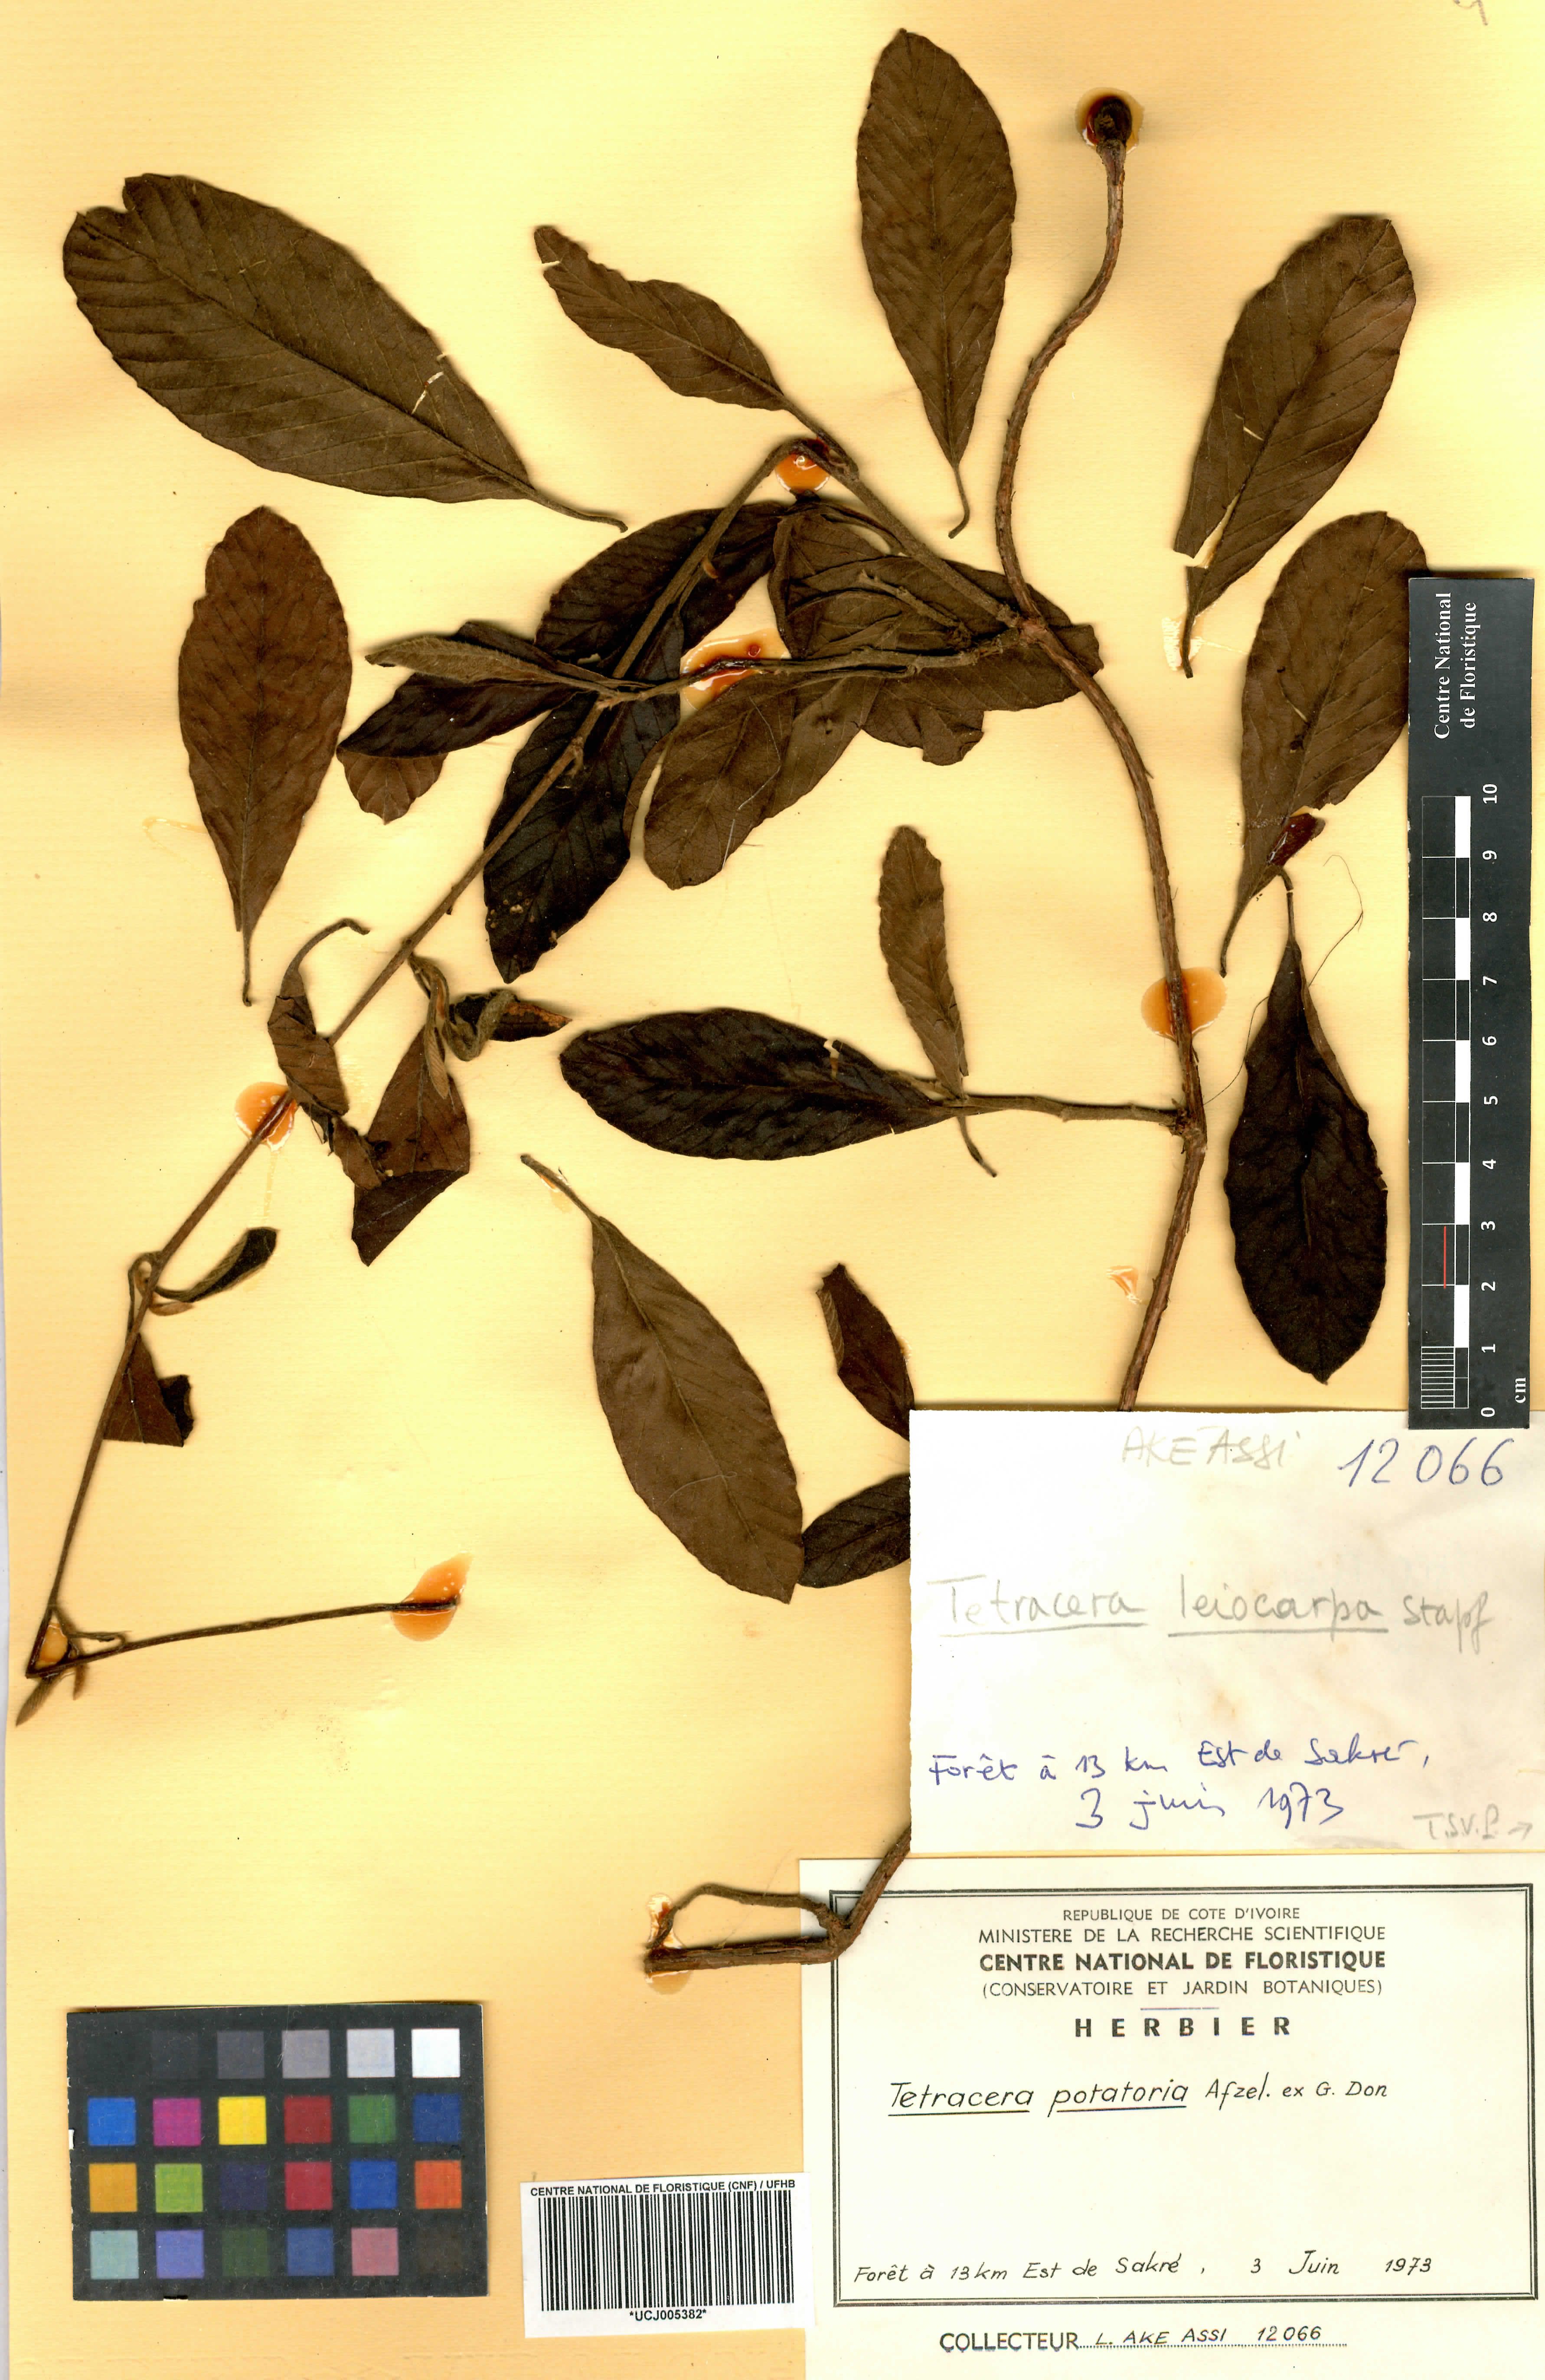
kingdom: Plantae
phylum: Tracheophyta
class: Magnoliopsida
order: Dilleniales
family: Dilleniaceae
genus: Tetracera
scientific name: Tetracera potatoria
